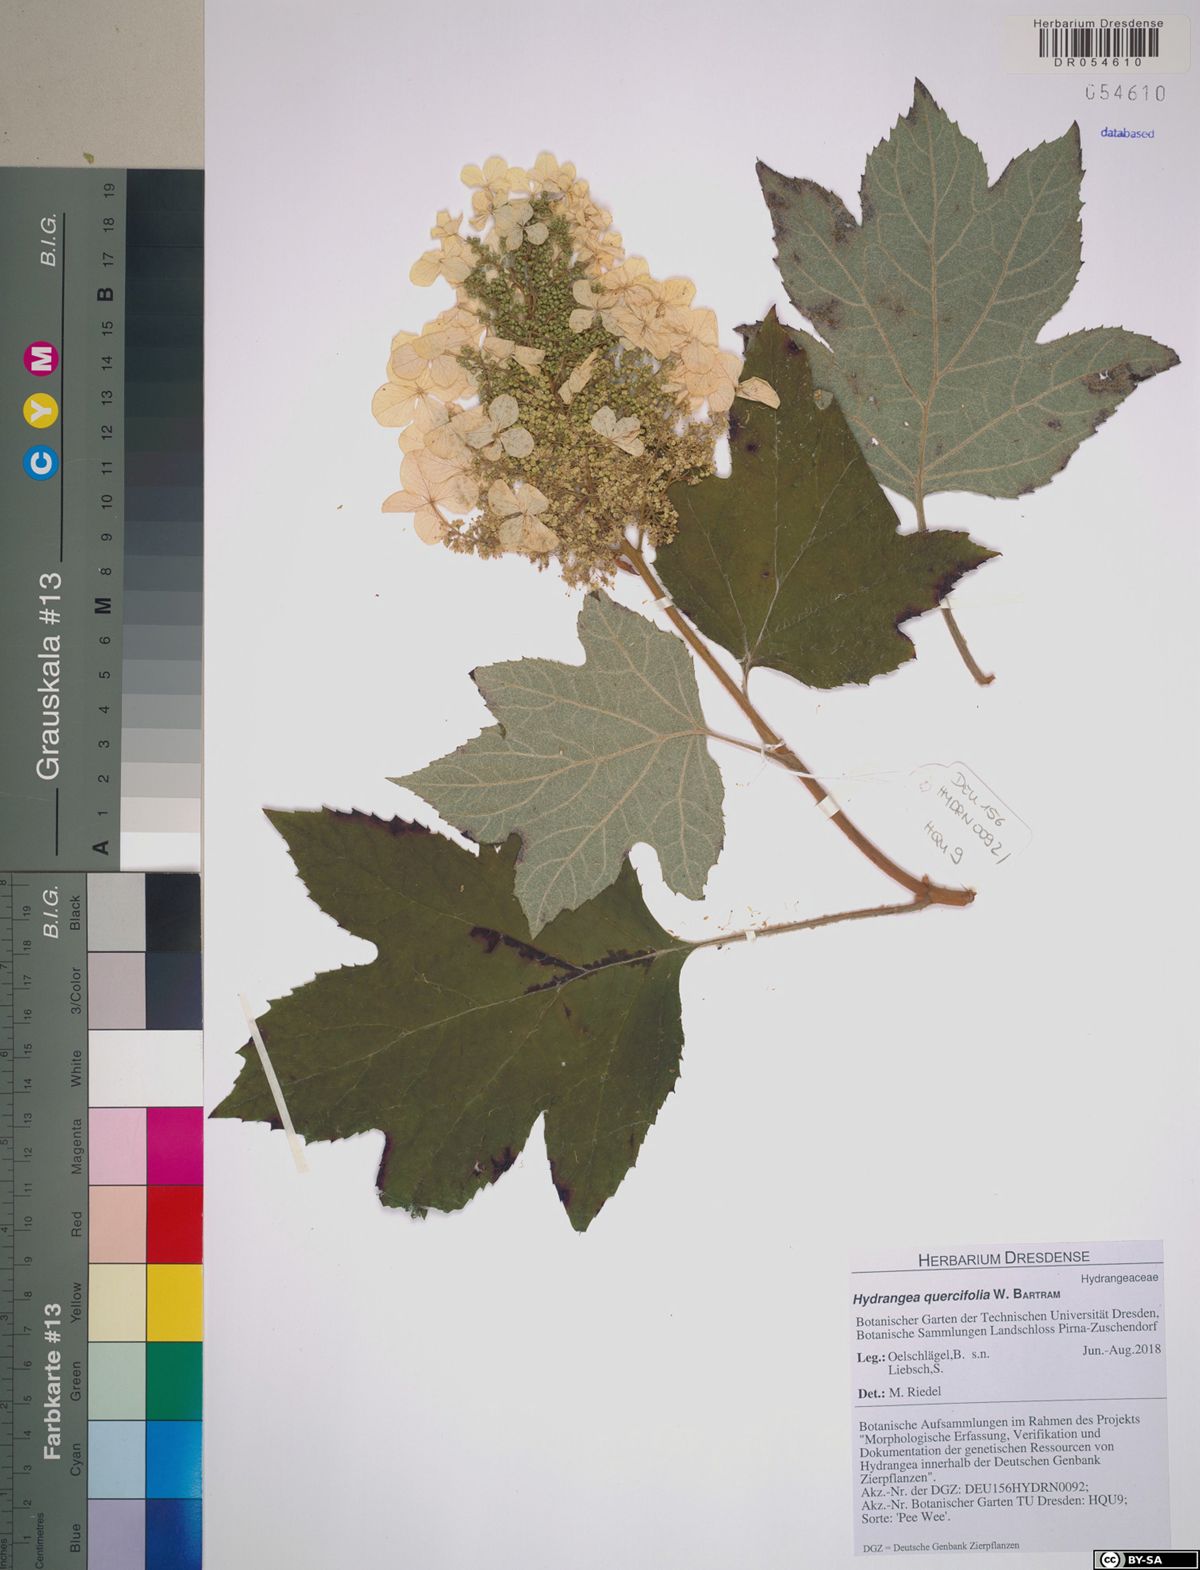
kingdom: Plantae
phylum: Tracheophyta
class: Magnoliopsida
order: Cornales
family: Hydrangeaceae
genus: Hydrangea
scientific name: Hydrangea quercifolia
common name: Oak-leaf hydrangea
